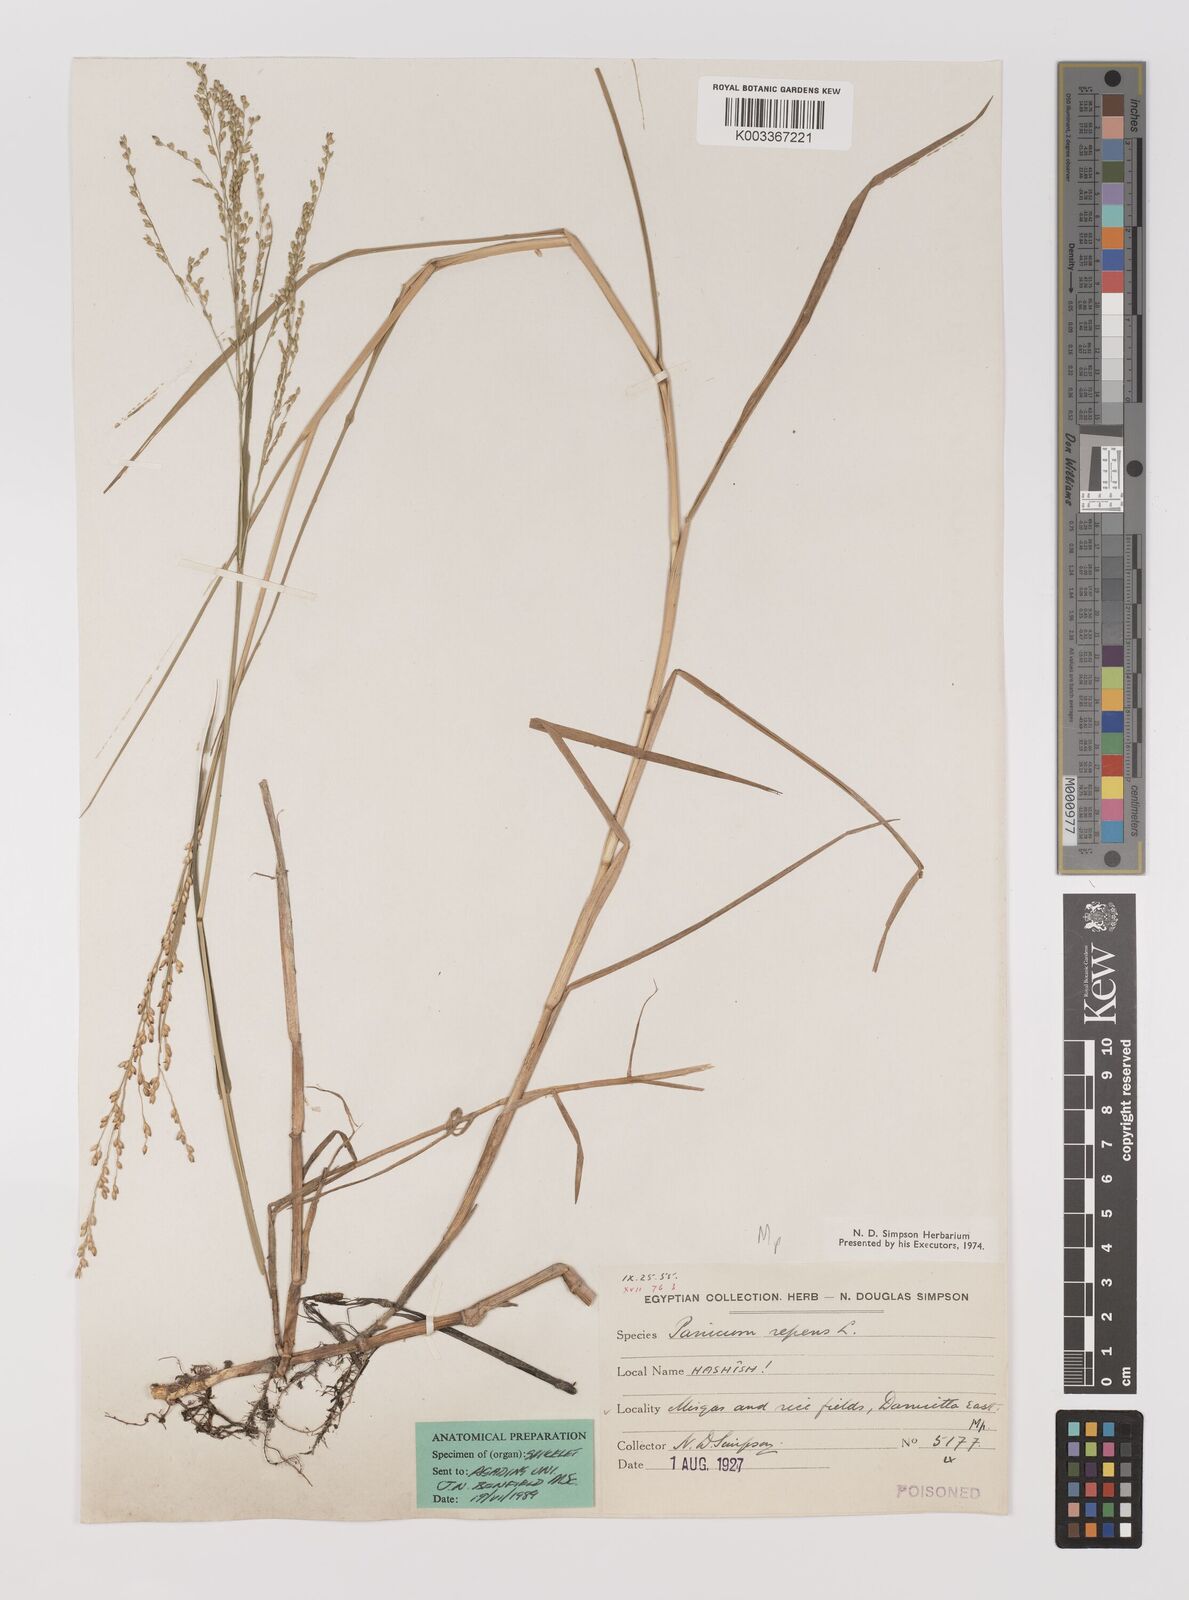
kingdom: Plantae
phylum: Tracheophyta
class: Liliopsida
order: Poales
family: Poaceae
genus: Panicum
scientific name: Panicum repens
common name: Torpedo grass
